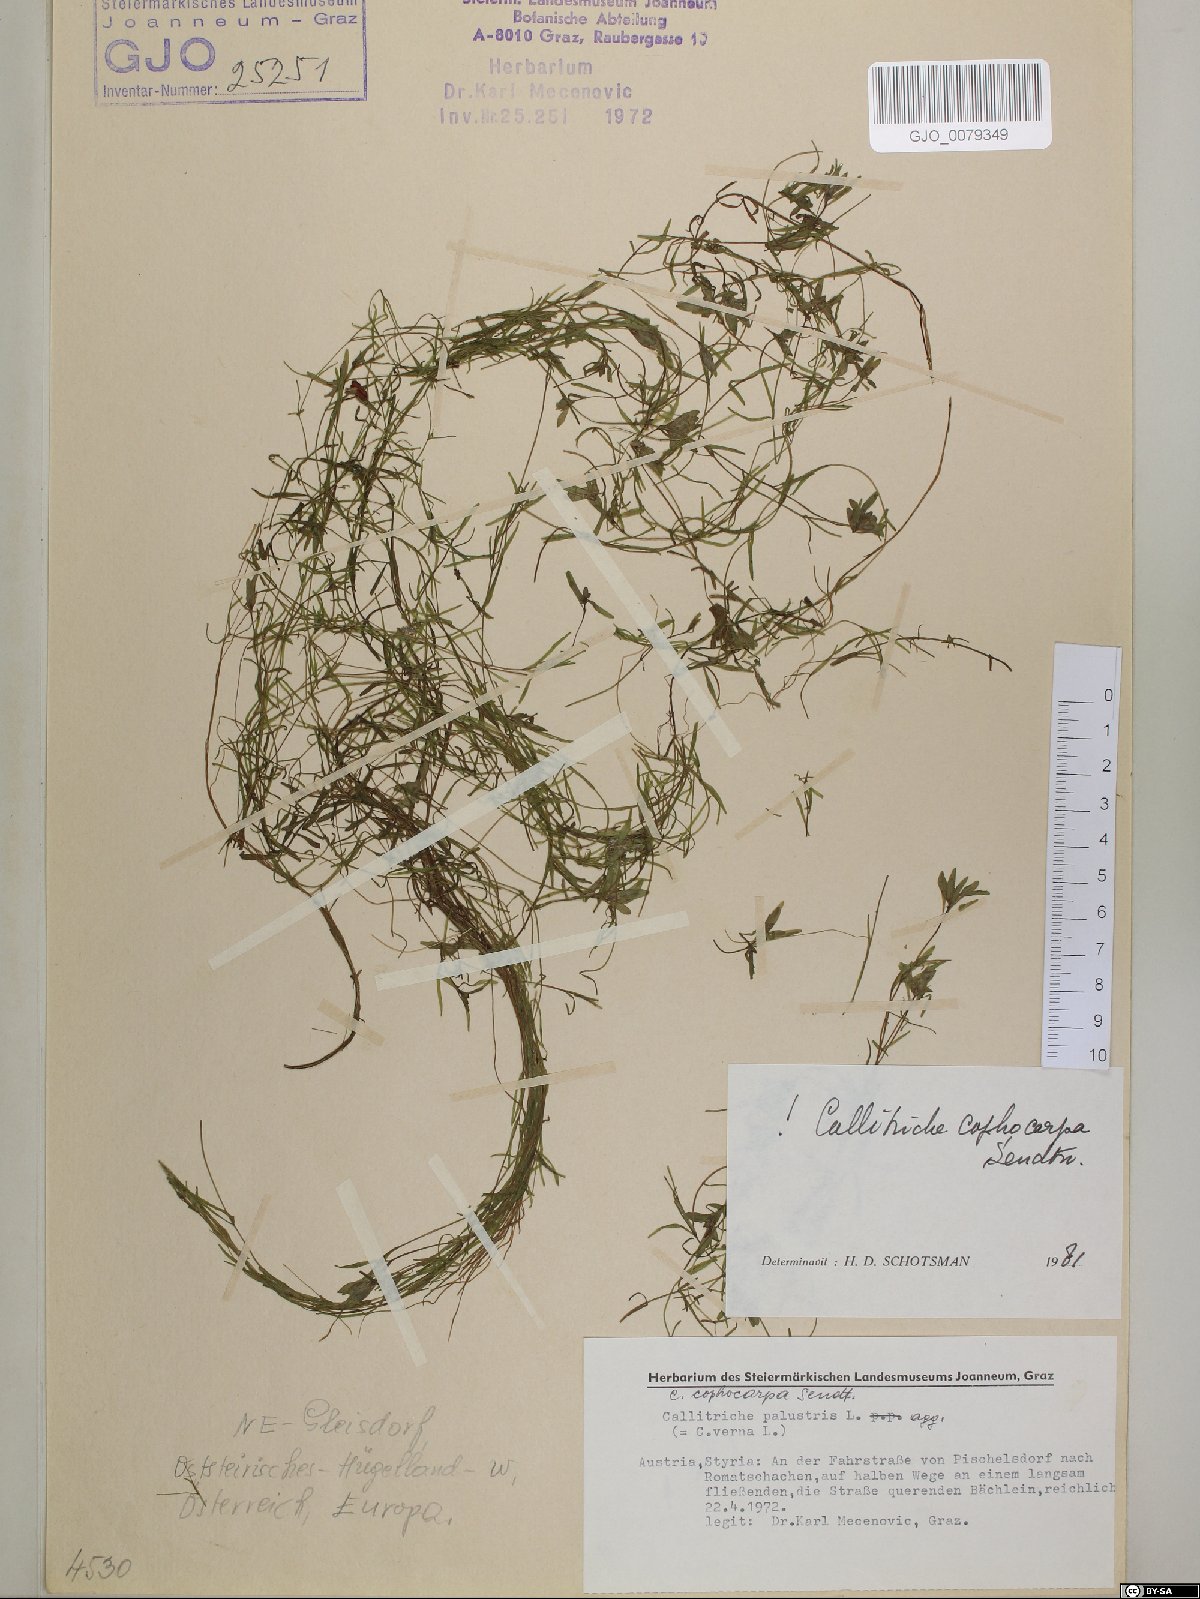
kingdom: Plantae
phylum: Tracheophyta
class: Magnoliopsida
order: Lamiales
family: Plantaginaceae
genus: Callitriche
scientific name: Callitriche cophocarpa
